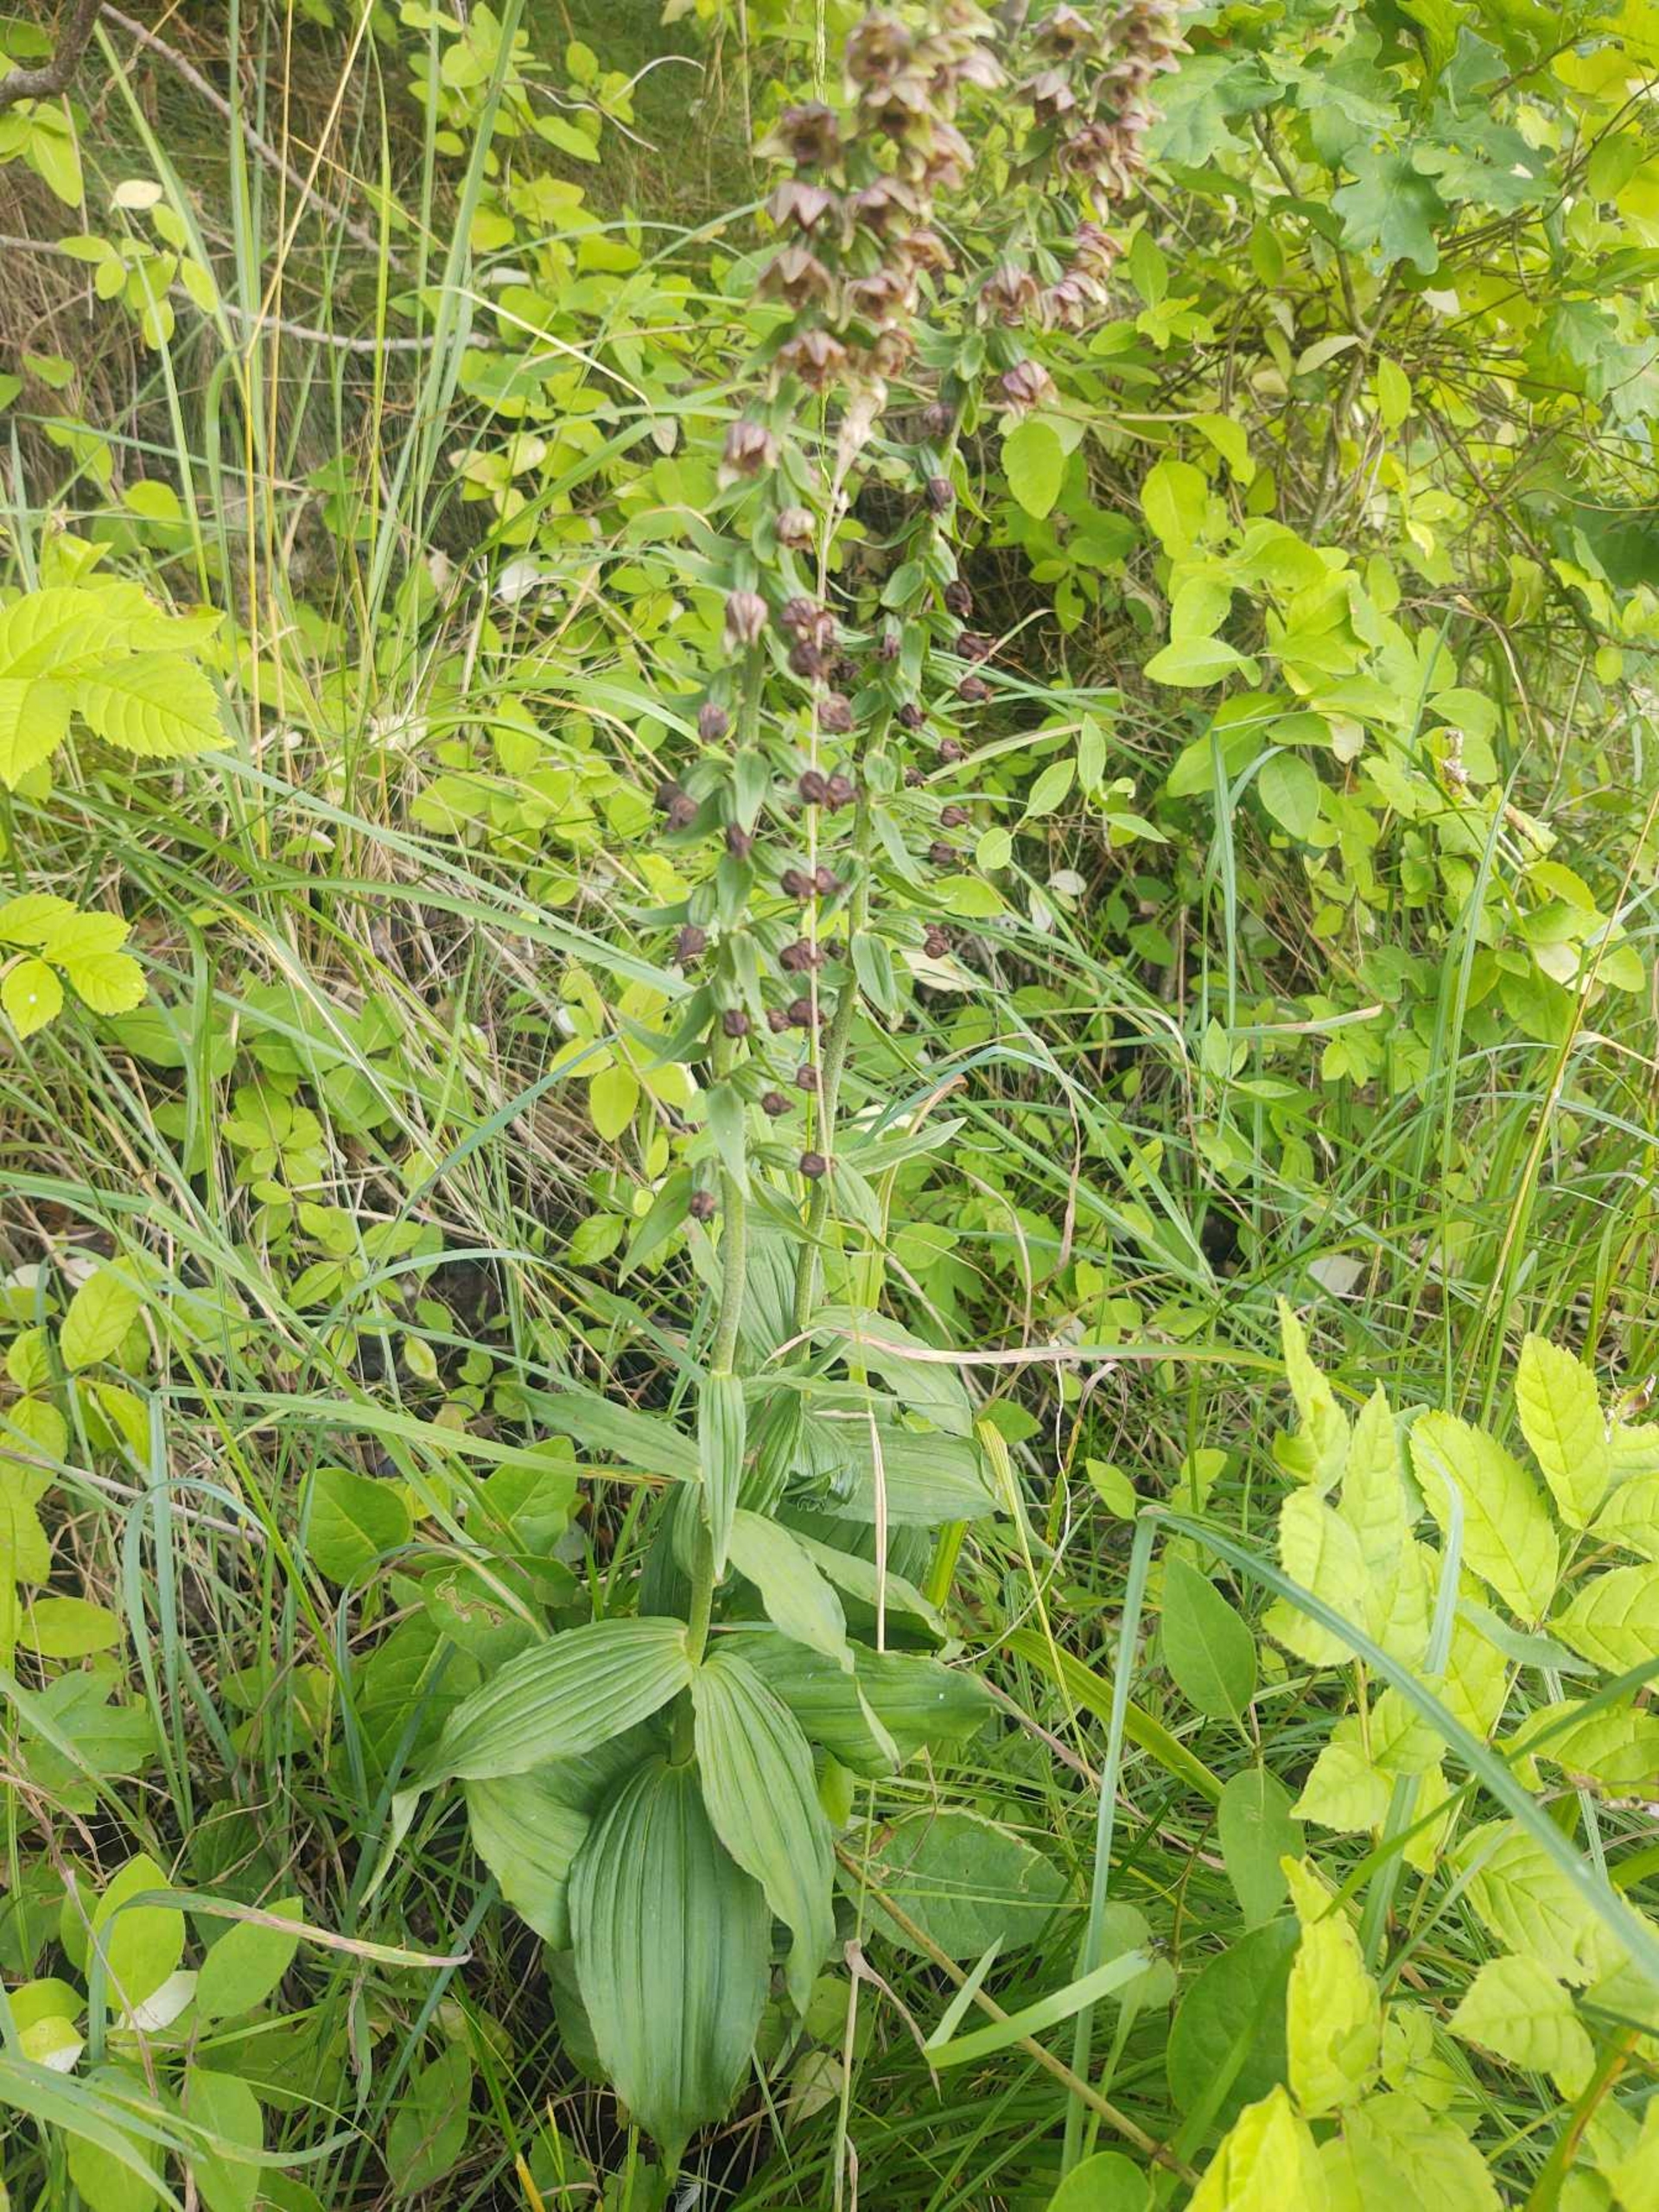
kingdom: Plantae
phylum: Tracheophyta
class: Liliopsida
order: Asparagales
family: Orchidaceae
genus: Epipactis
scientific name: Epipactis helleborine
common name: Skov-hullæbe
